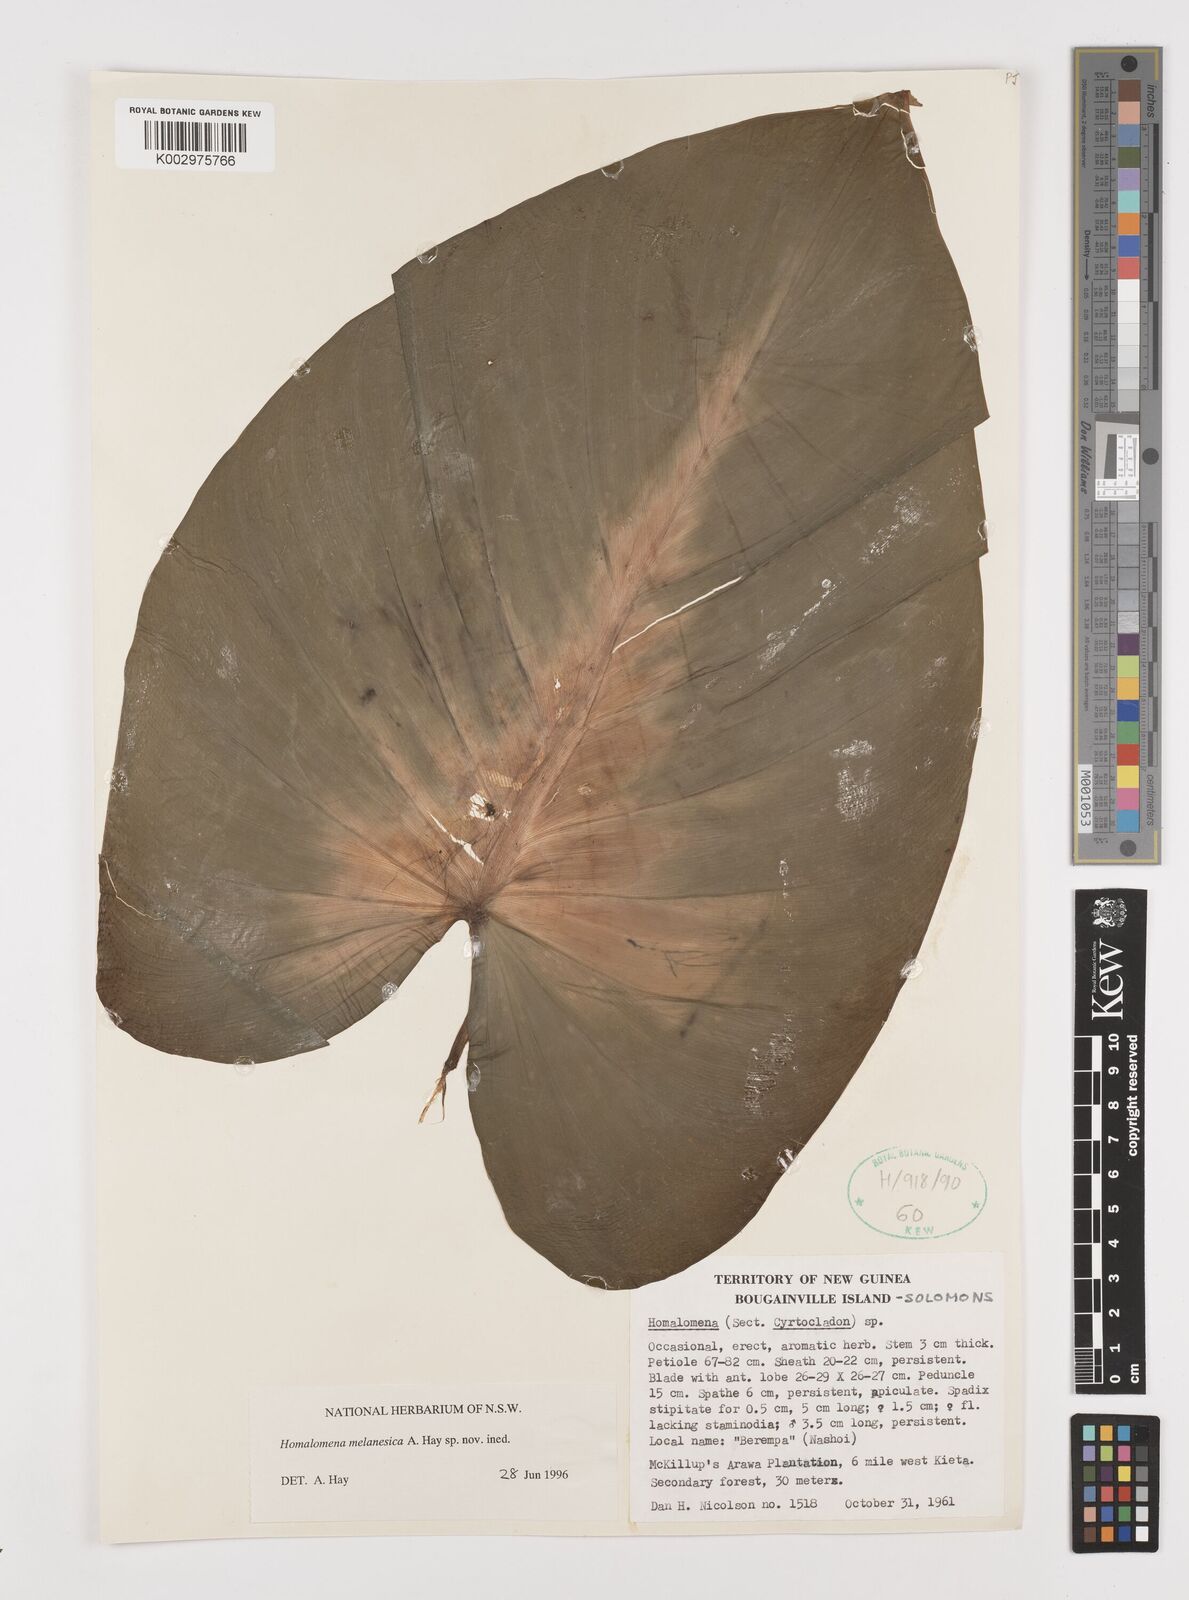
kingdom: Plantae
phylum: Tracheophyta
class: Liliopsida
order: Alismatales
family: Araceae
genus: Homalomena
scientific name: Homalomena melanesica
